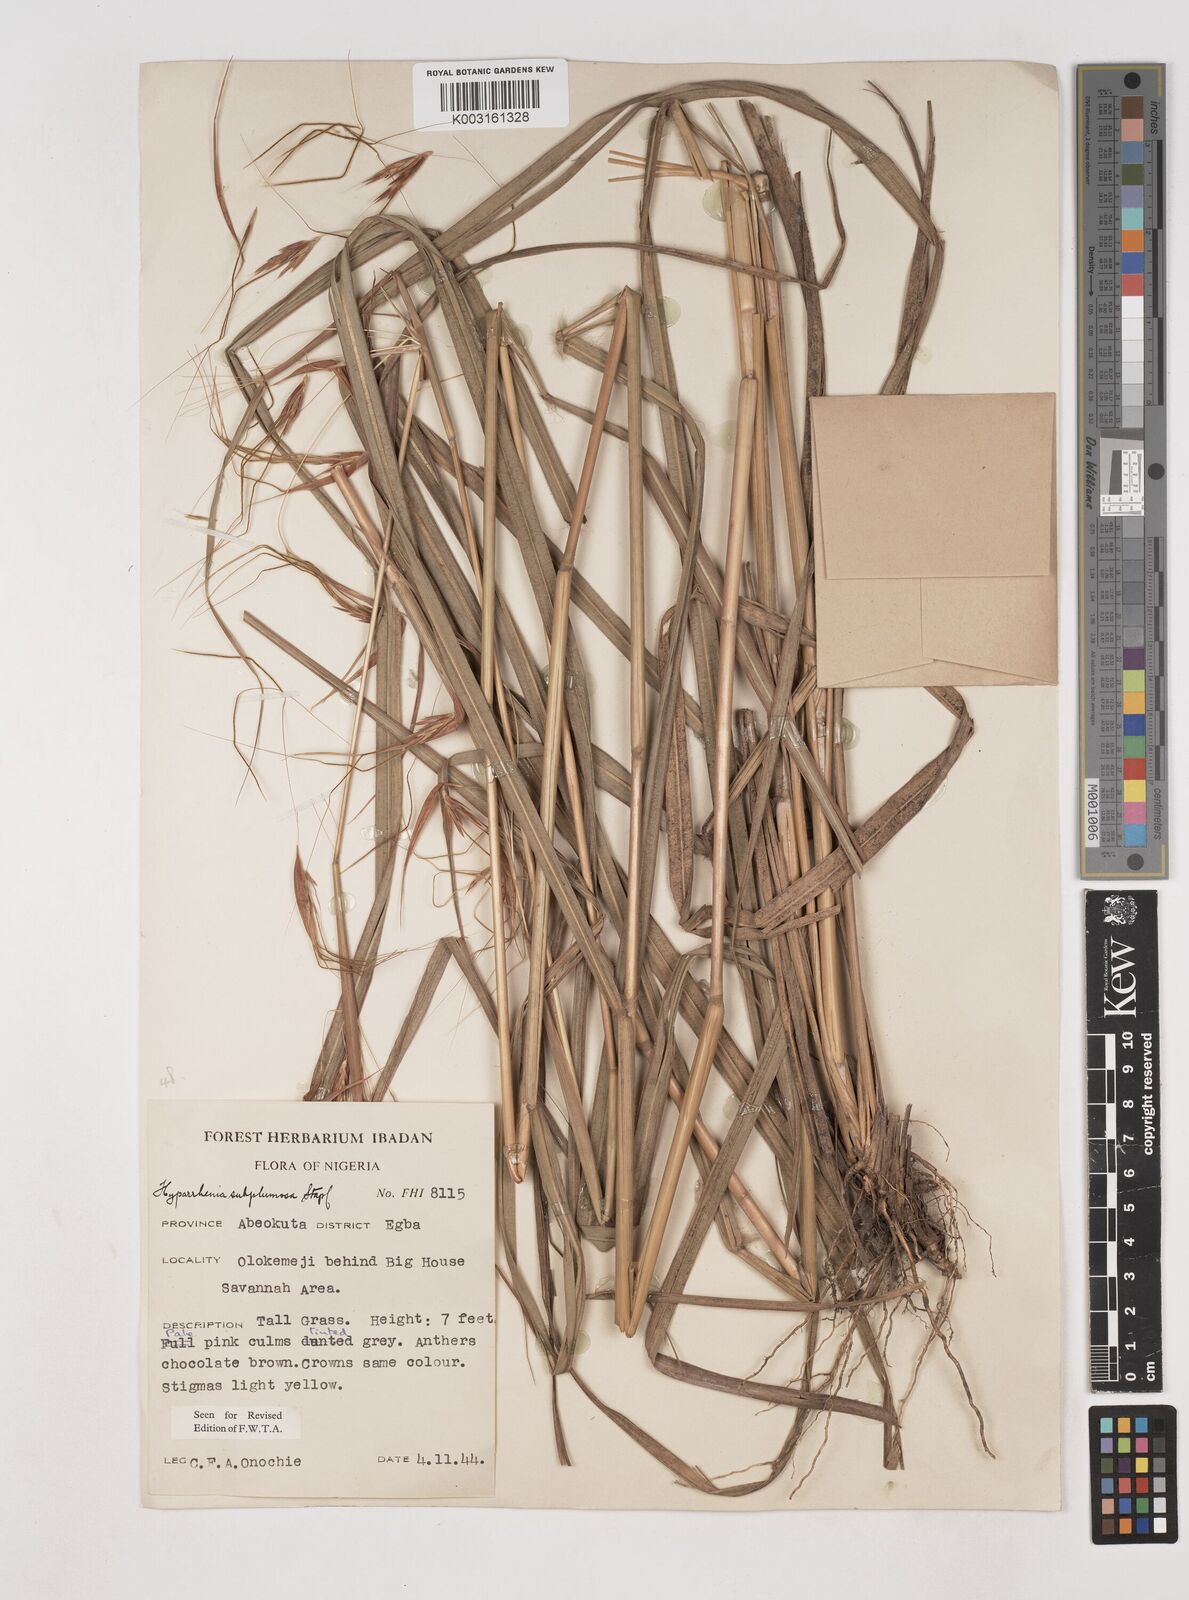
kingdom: Plantae
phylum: Tracheophyta
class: Liliopsida
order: Poales
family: Poaceae
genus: Hyparrhenia
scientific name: Hyparrhenia subplumosa
